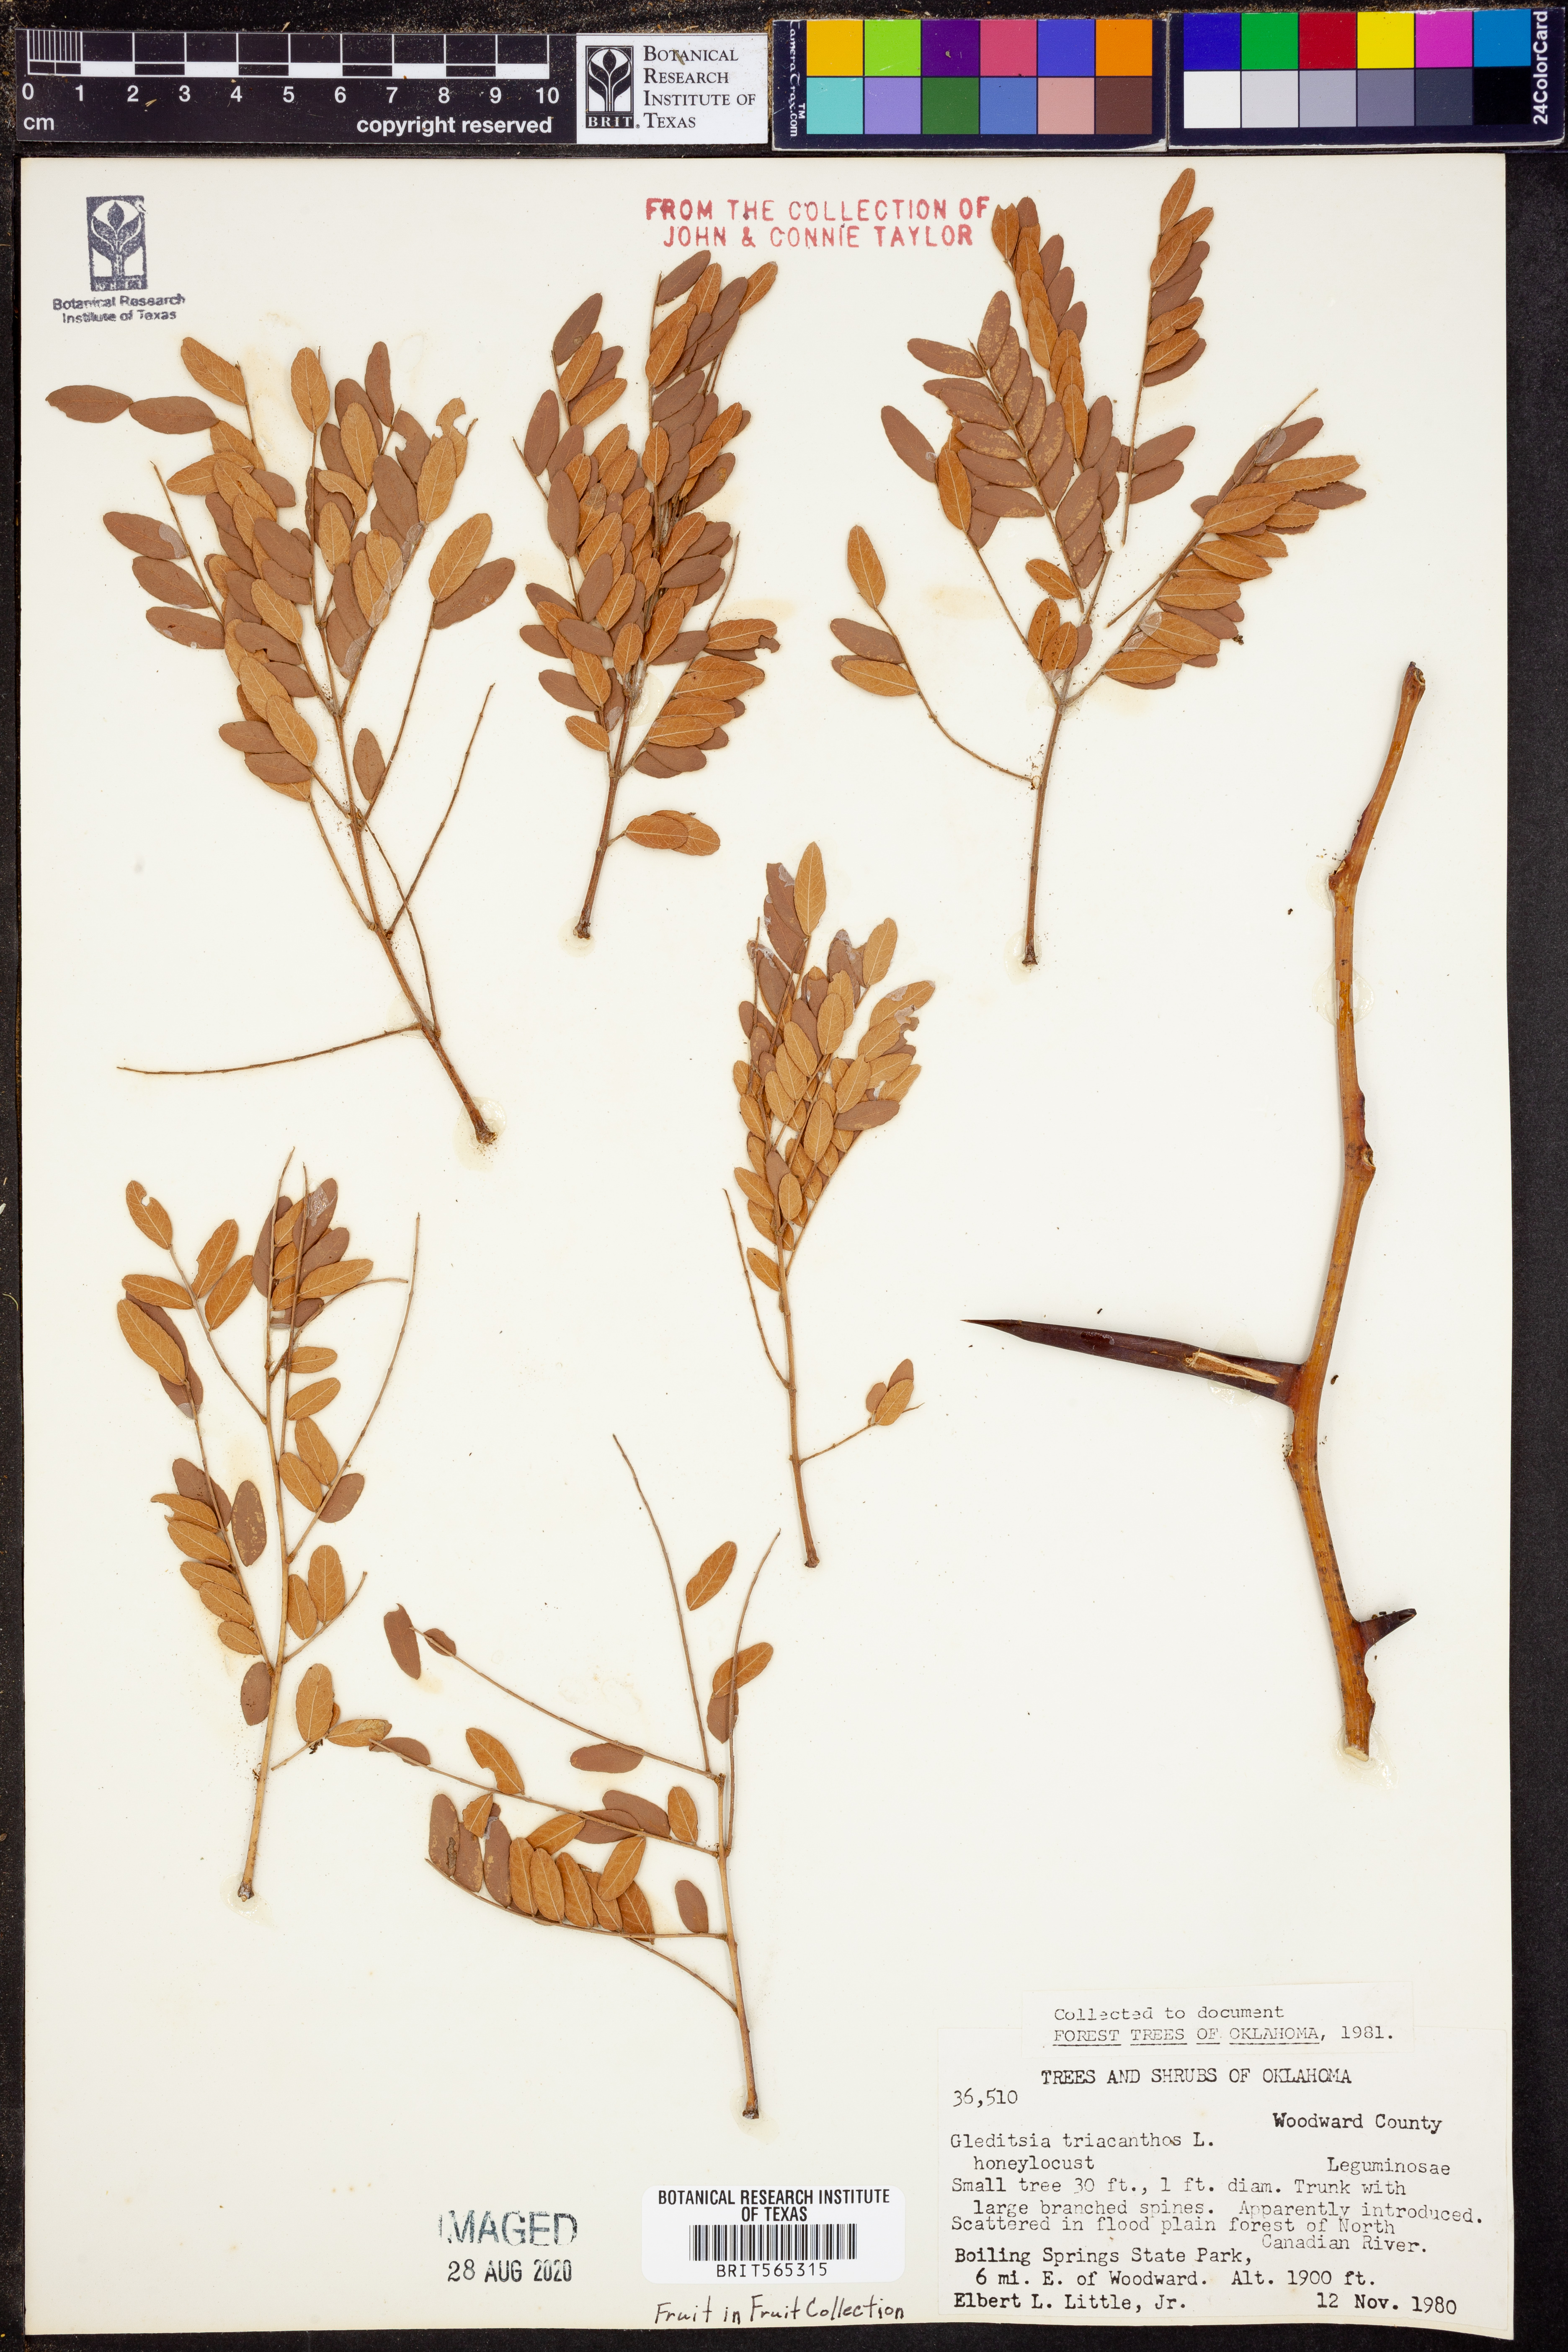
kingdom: Plantae
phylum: Tracheophyta
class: Magnoliopsida
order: Fabales
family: Fabaceae
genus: Gleditsia
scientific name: Gleditsia triacanthos
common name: Common honeylocust
